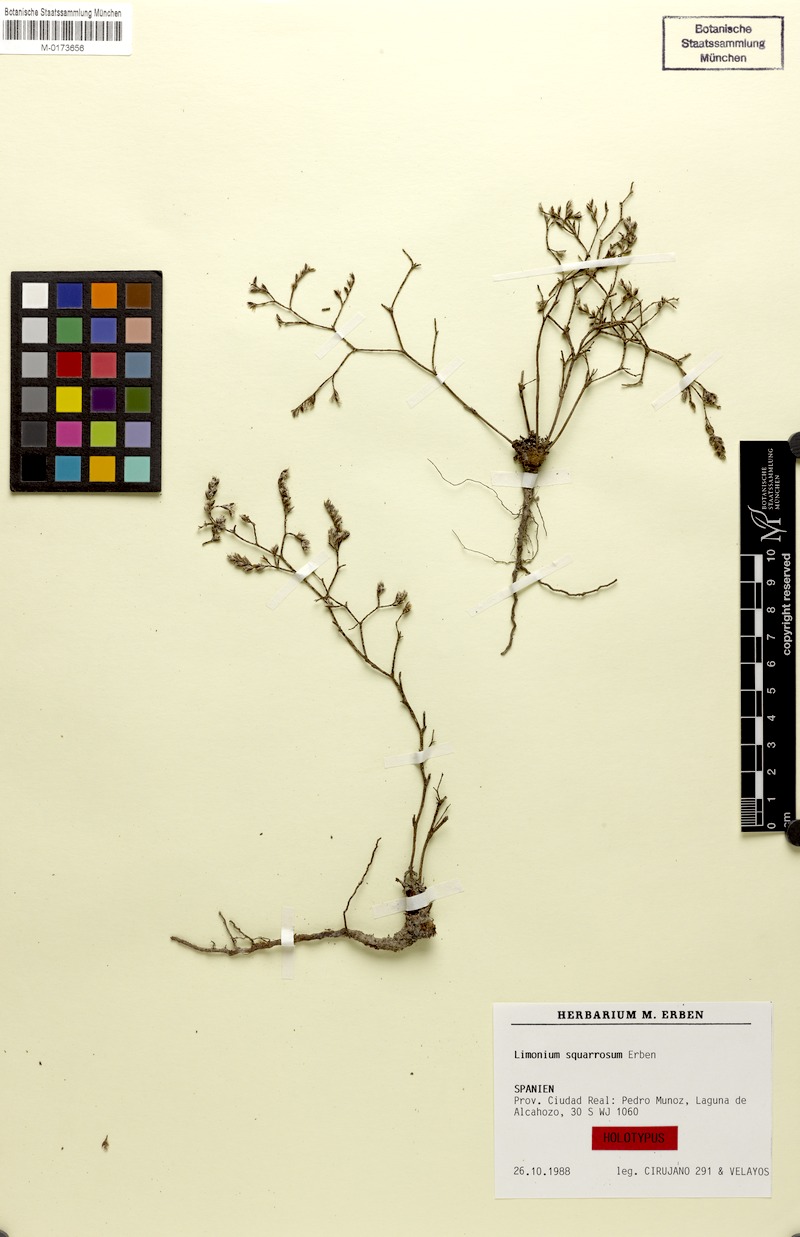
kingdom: Plantae
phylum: Tracheophyta
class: Magnoliopsida
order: Caryophyllales
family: Plumbaginaceae
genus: Limonium
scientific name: Limonium squarrosum
